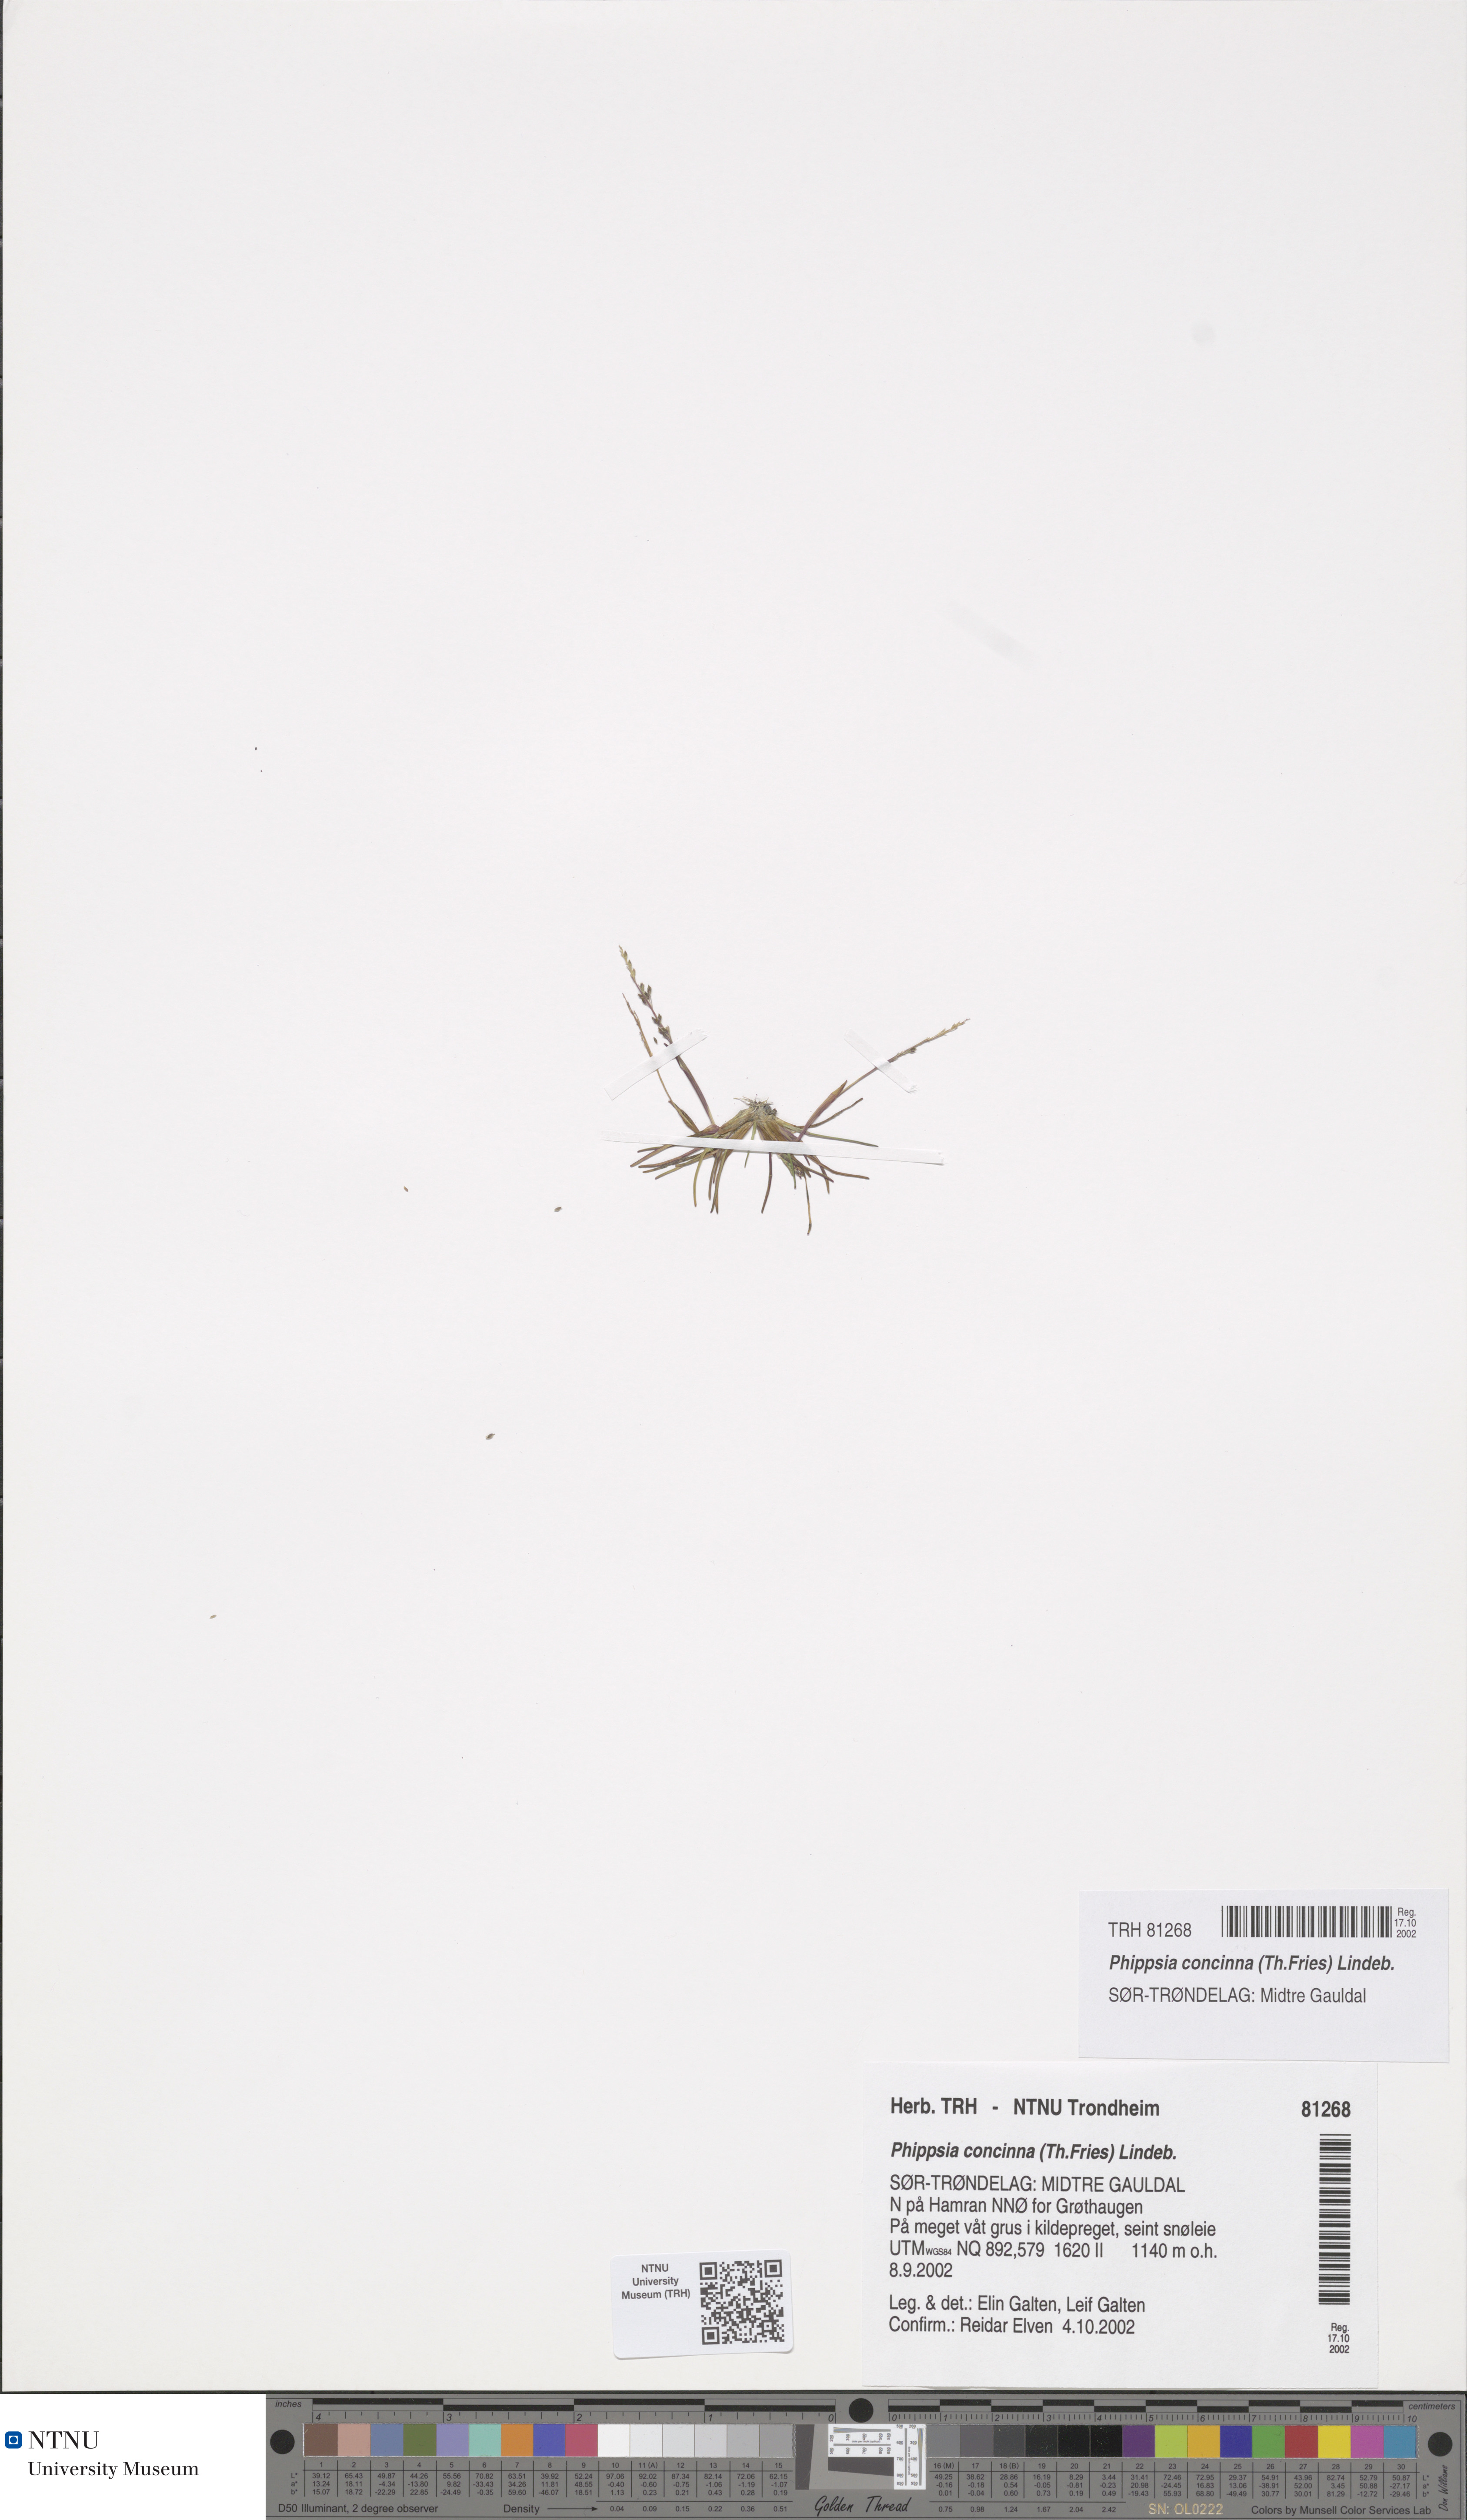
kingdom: Plantae
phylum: Tracheophyta
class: Liliopsida
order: Poales
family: Poaceae
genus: Phippsia
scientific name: Phippsia concinna
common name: Snowgrass
